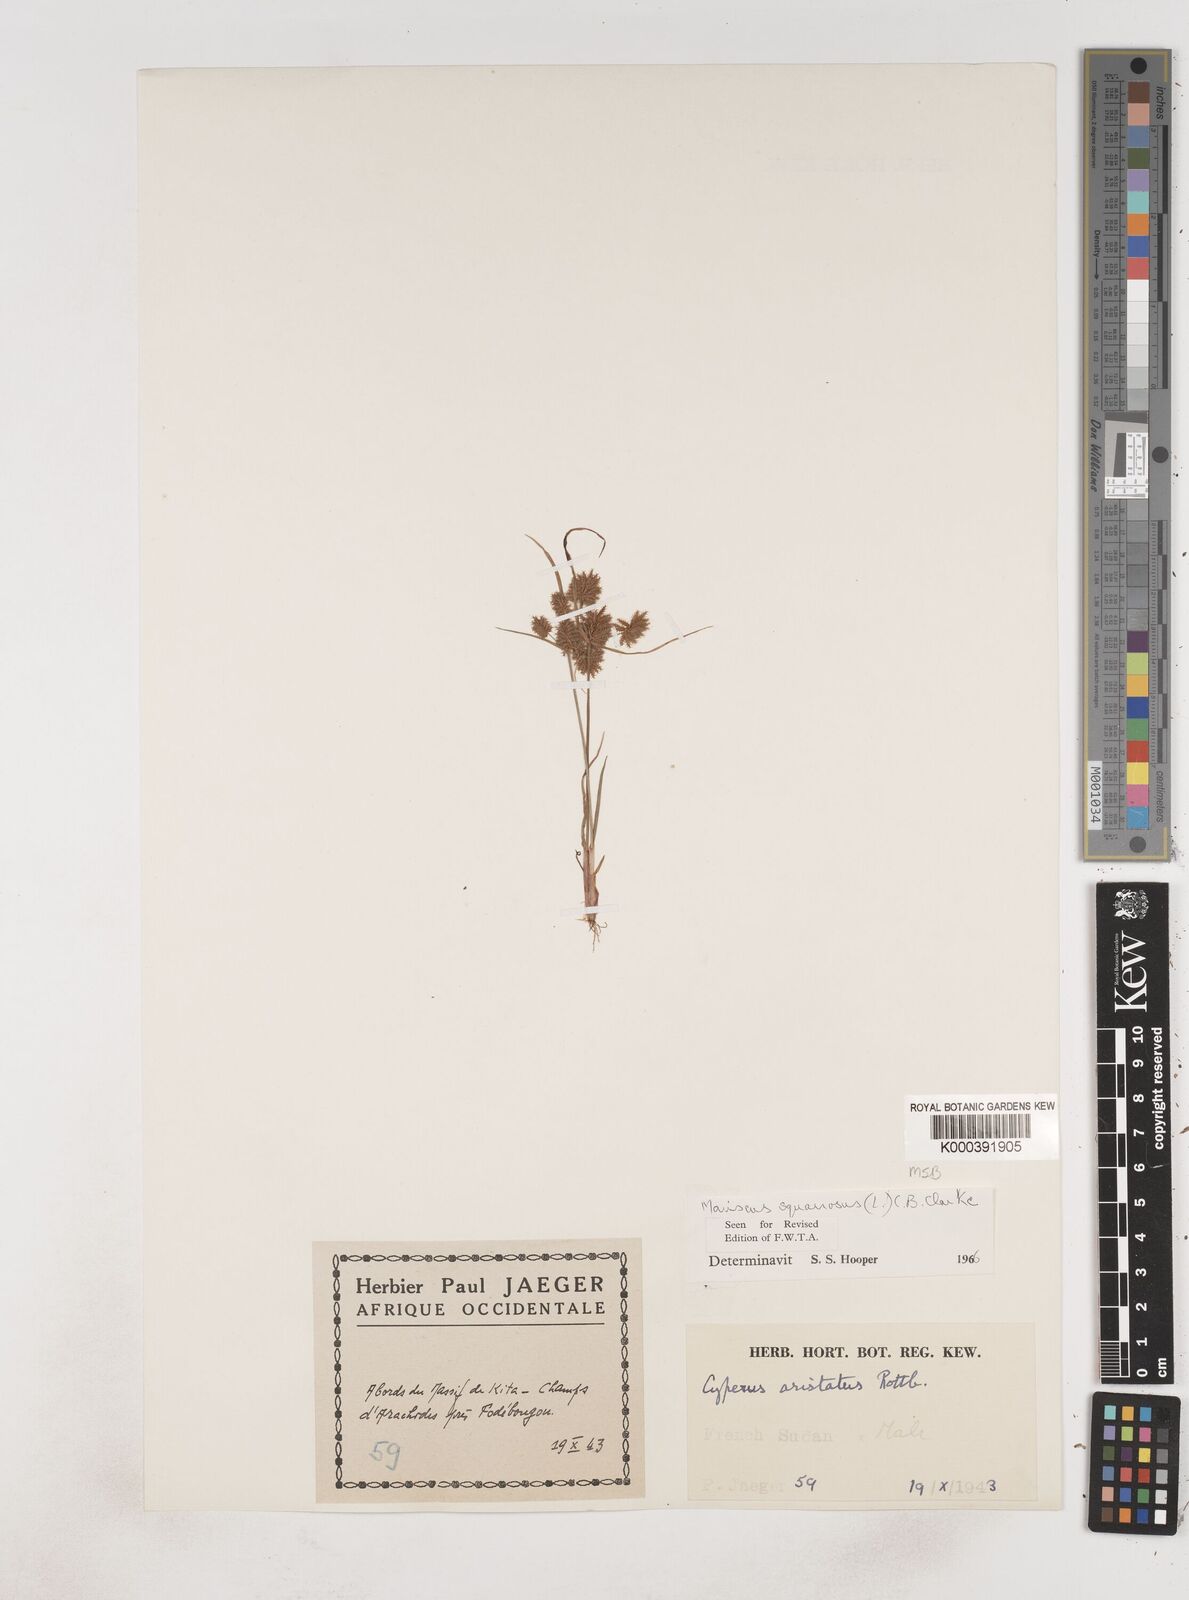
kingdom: Plantae
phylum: Tracheophyta
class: Liliopsida
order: Poales
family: Cyperaceae
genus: Cyperus
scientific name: Cyperus squarrosus
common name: Awned cyperus
